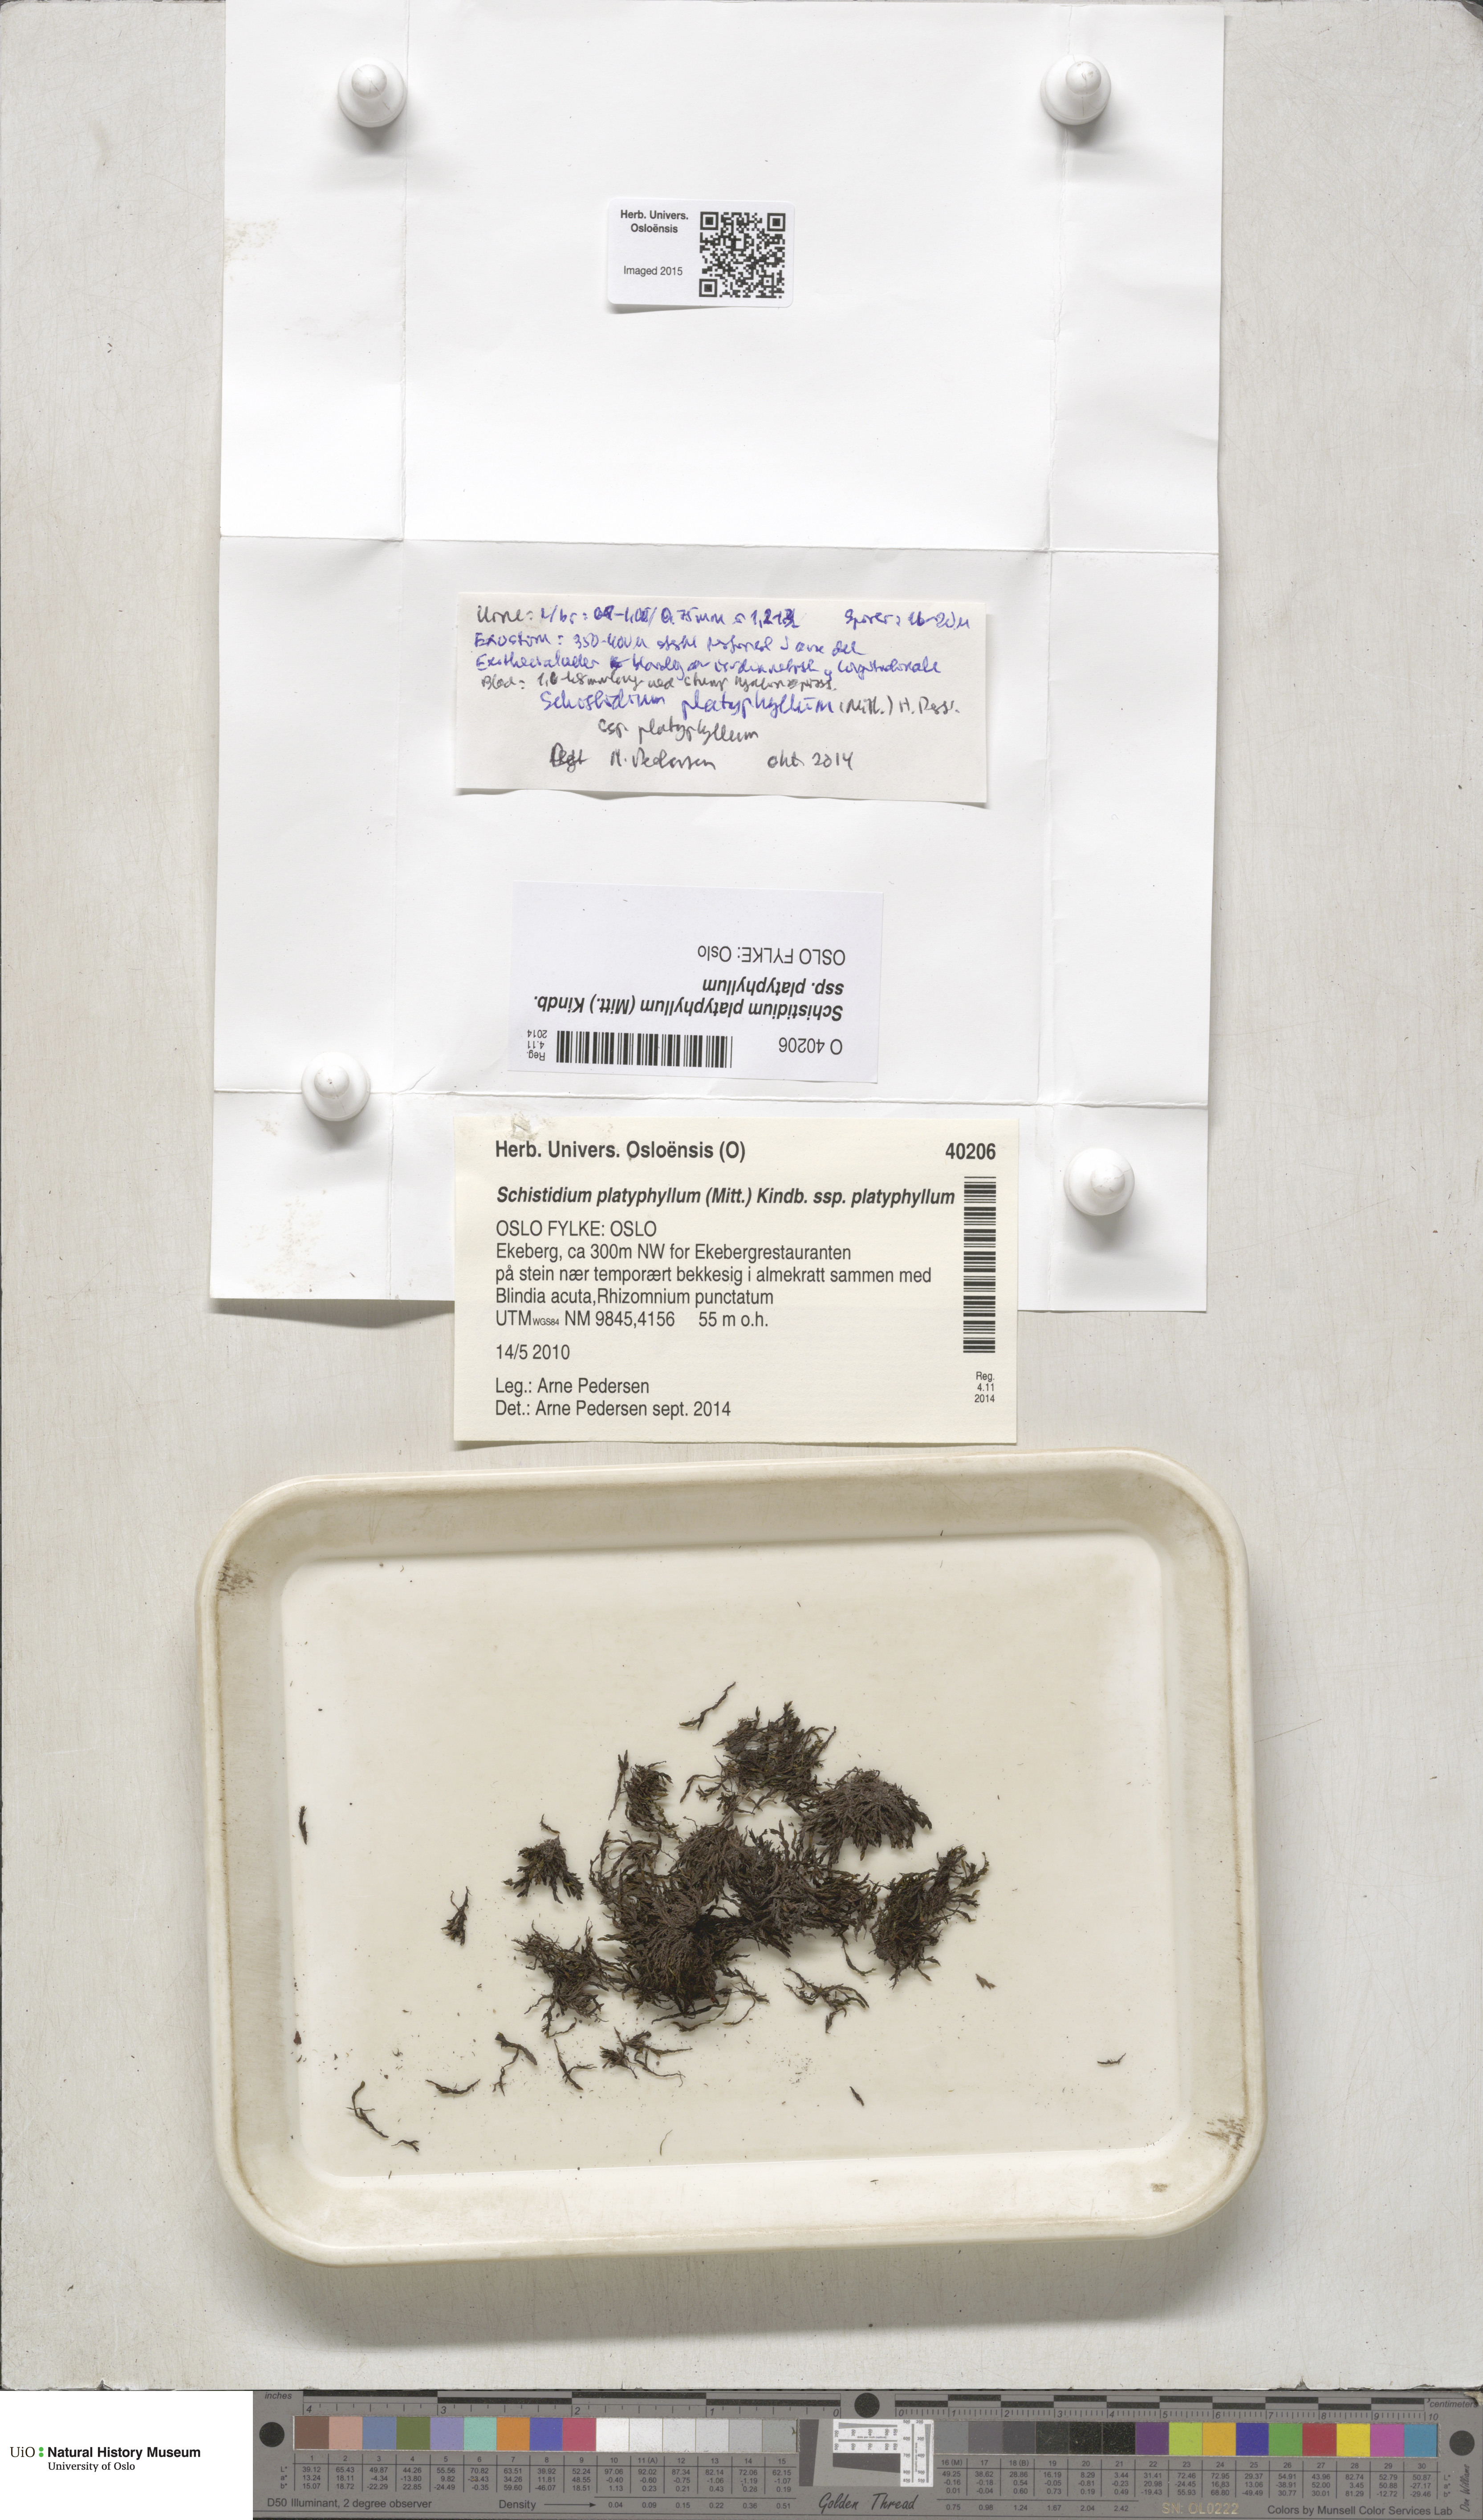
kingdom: Plantae
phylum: Bryophyta
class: Bryopsida
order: Grimmiales
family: Grimmiaceae
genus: Schistidium
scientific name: Schistidium platyphyllum
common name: Broadleaf grimmia
